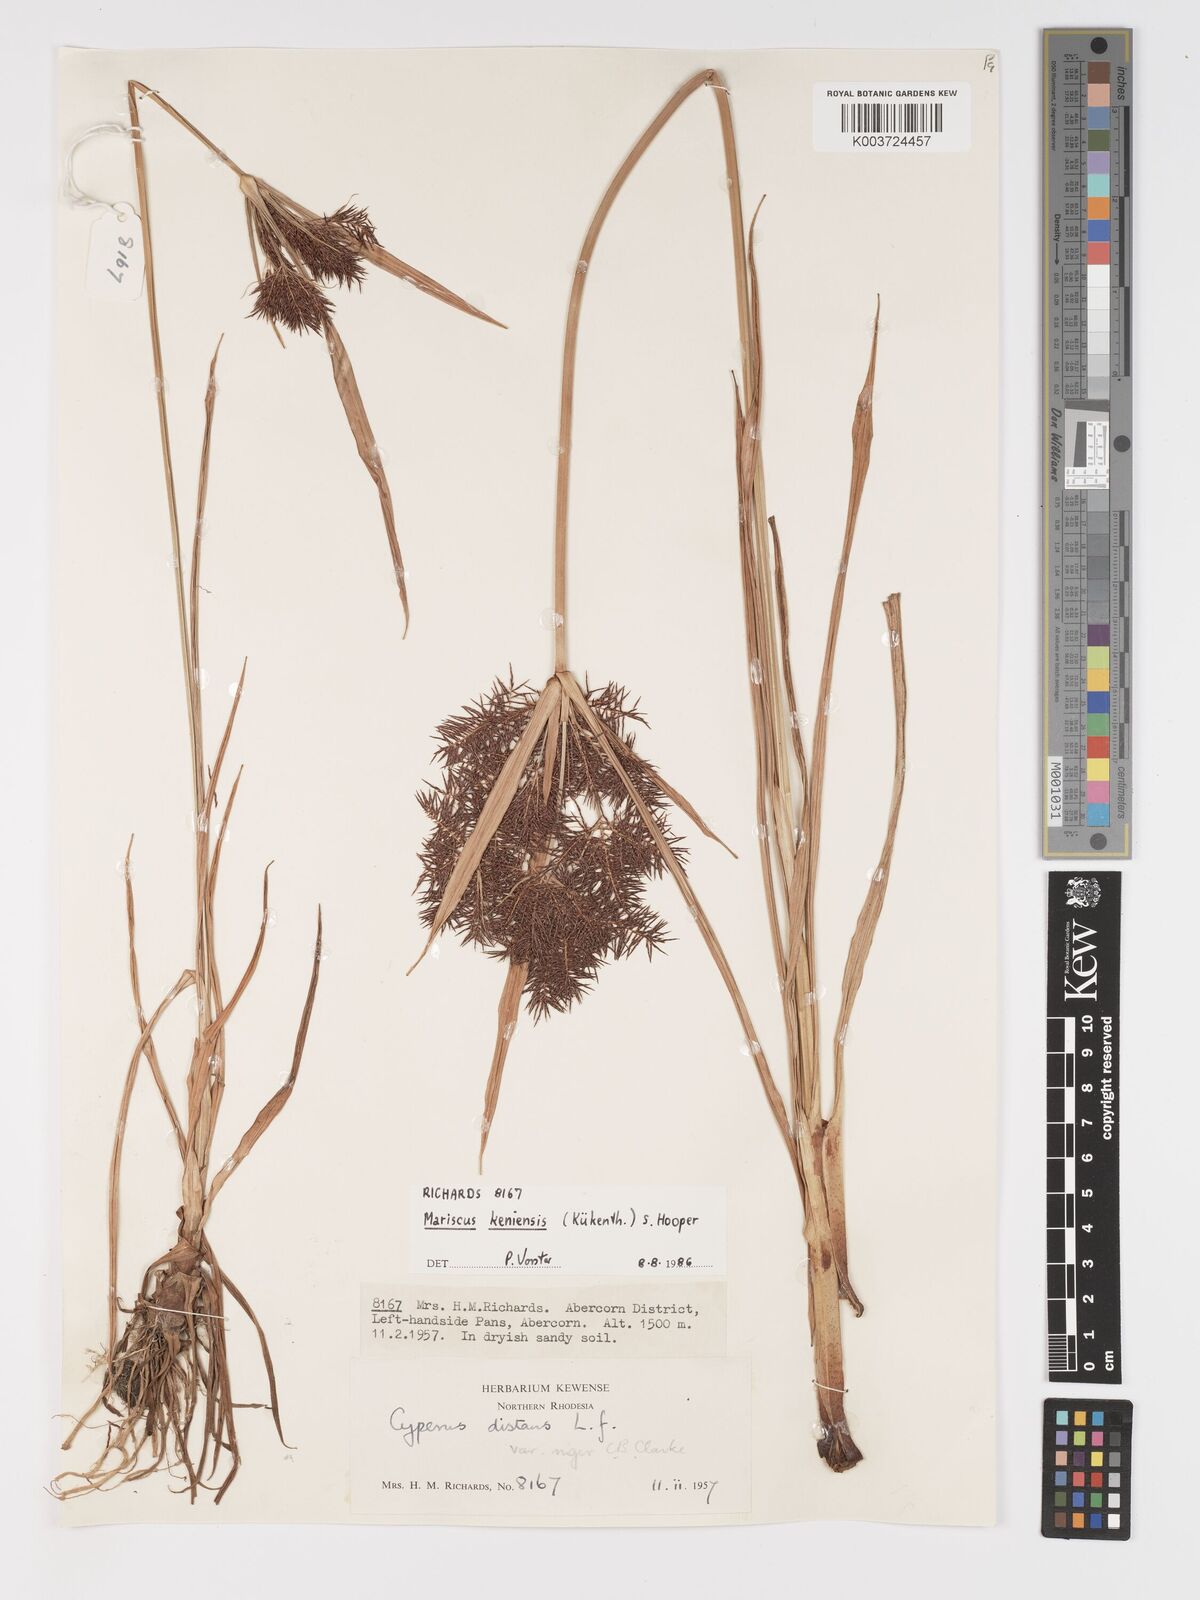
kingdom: Plantae
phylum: Tracheophyta
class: Liliopsida
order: Poales
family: Cyperaceae
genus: Cyperus
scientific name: Cyperus
